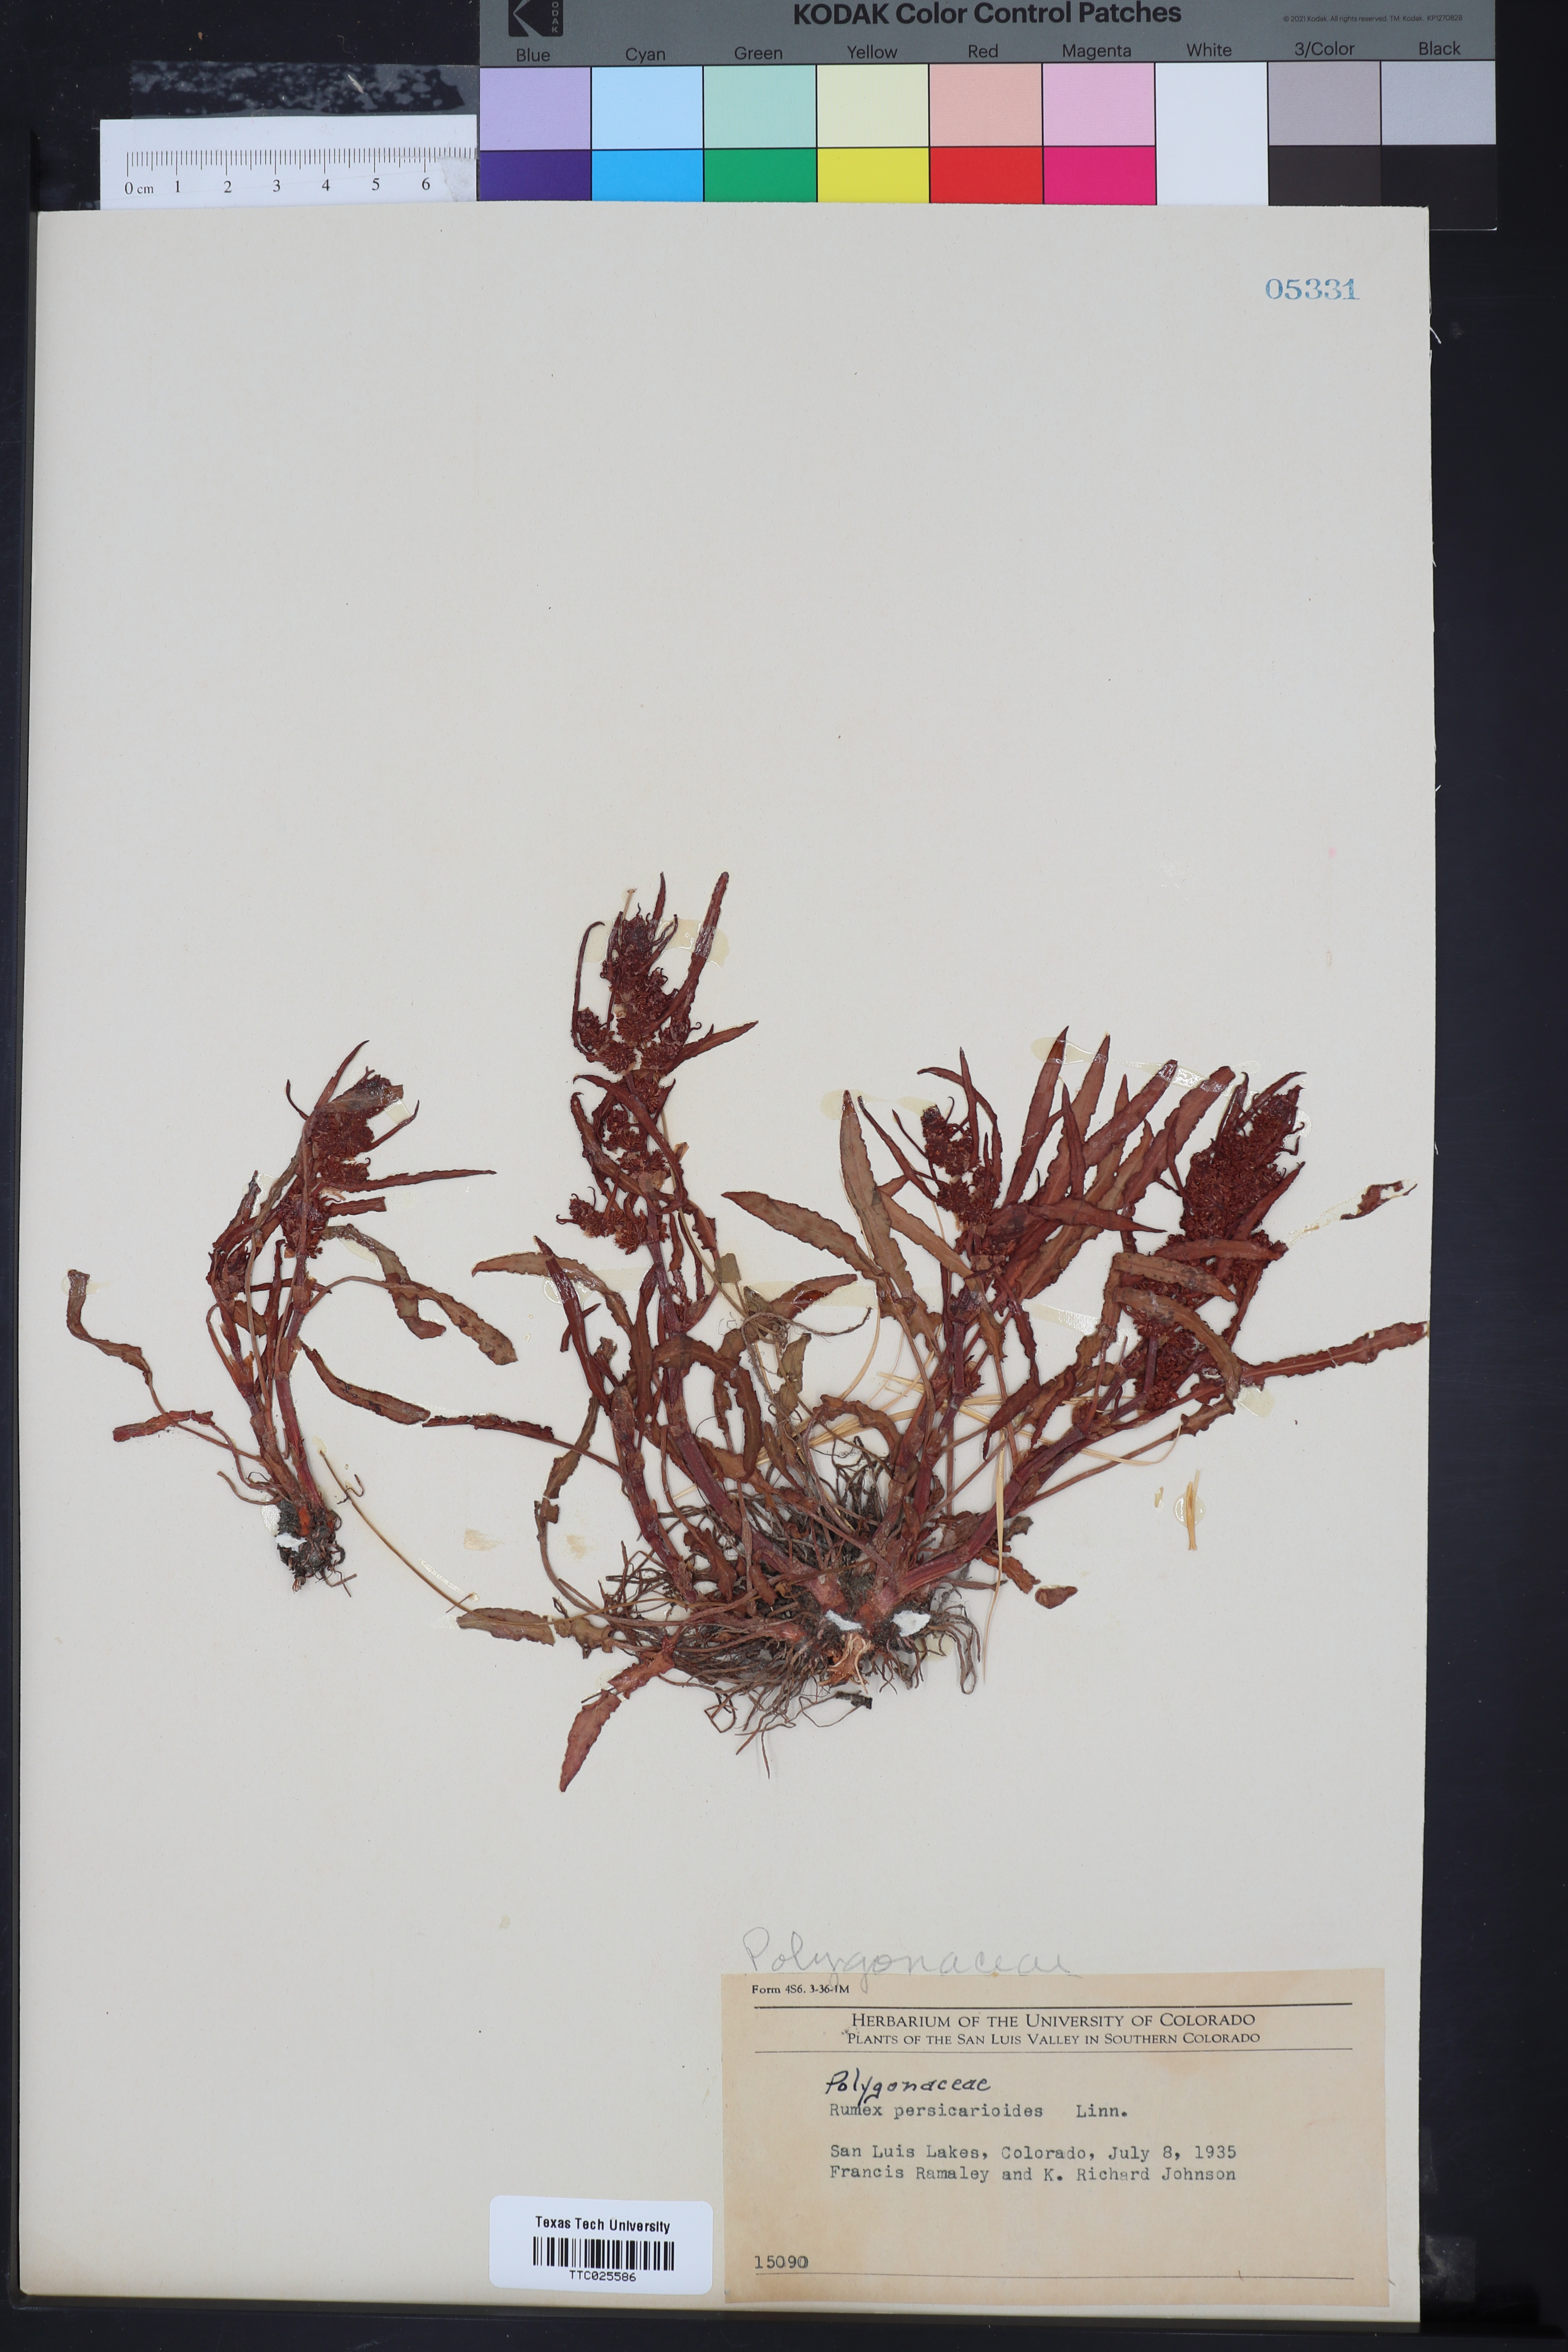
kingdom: Plantae
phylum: Tracheophyta
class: Magnoliopsida
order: Caryophyllales
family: Polygonaceae
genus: Rumex
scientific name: Rumex persicarioides
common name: Peach-leaved dock
